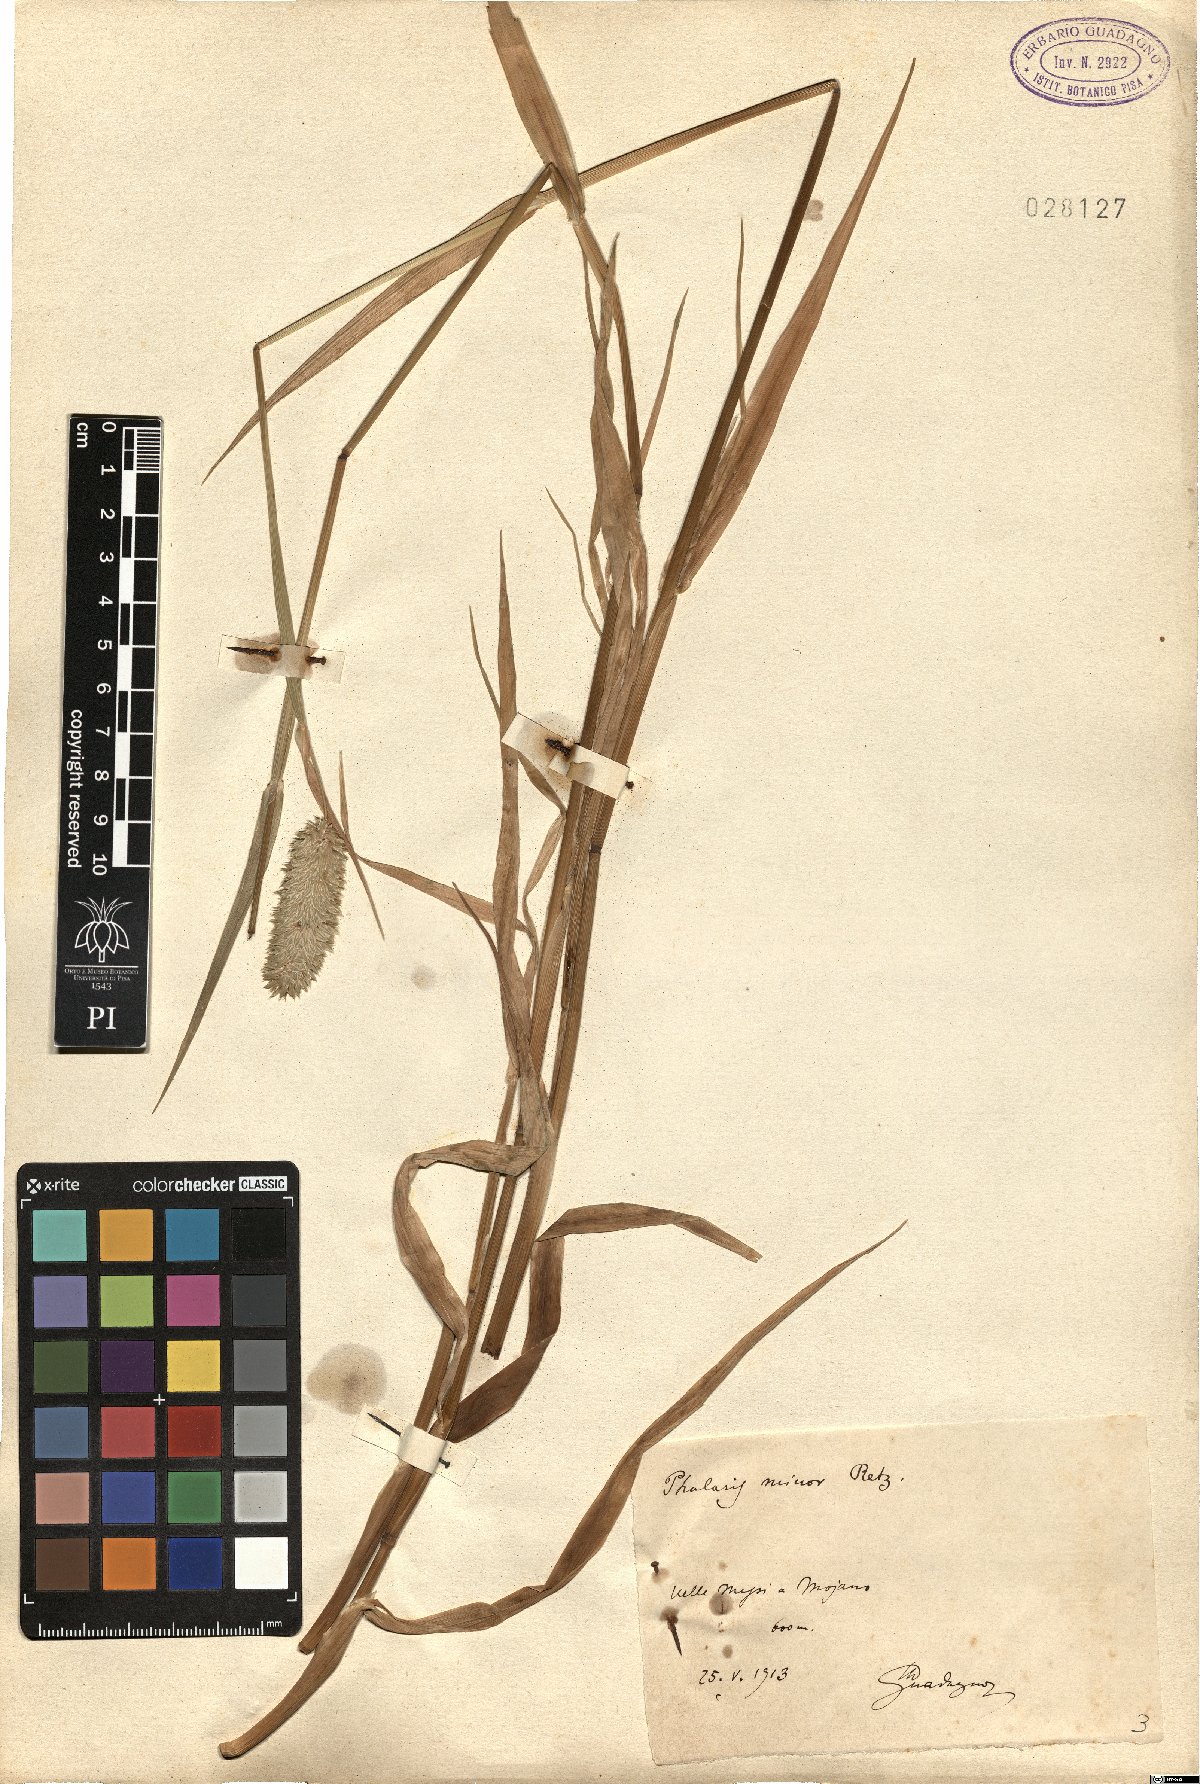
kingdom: Plantae
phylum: Tracheophyta
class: Liliopsida
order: Poales
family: Poaceae
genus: Phalaris
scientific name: Phalaris minor
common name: Littleseed canarygrass
